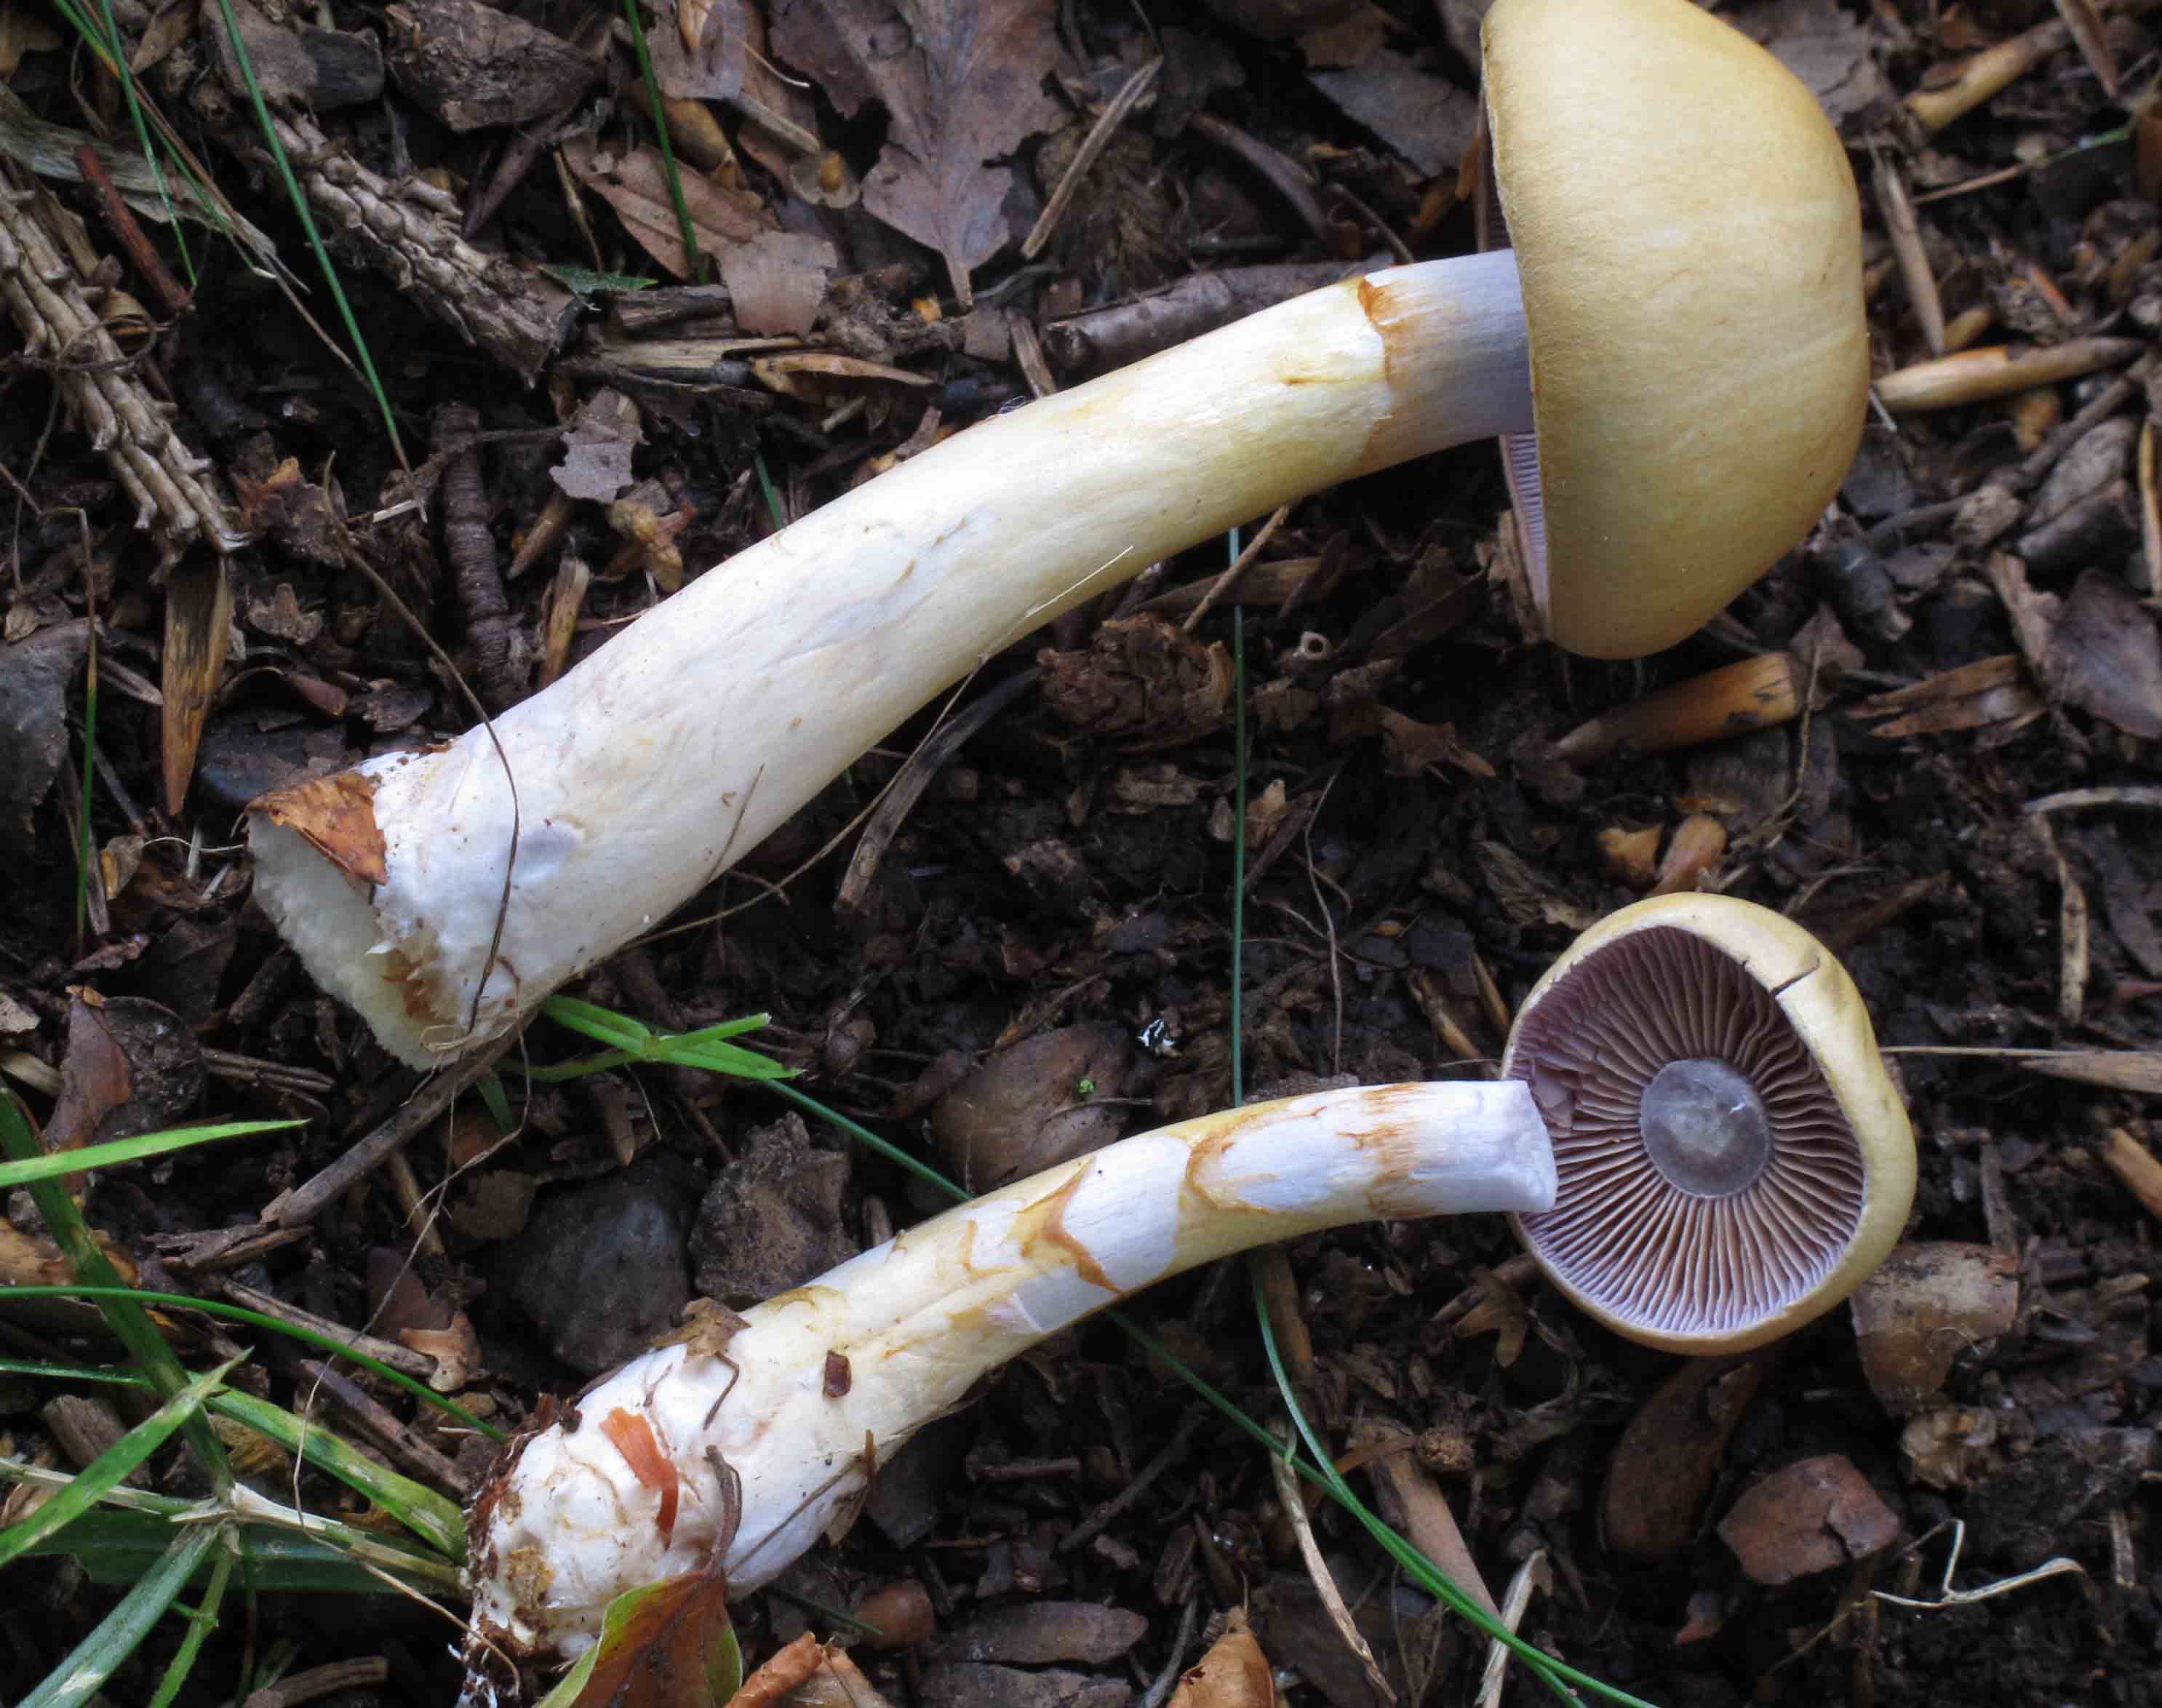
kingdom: Fungi
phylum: Basidiomycota
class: Agaricomycetes
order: Agaricales
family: Cortinariaceae
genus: Cortinarius
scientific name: Cortinarius delibutus
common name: gul slørhat
